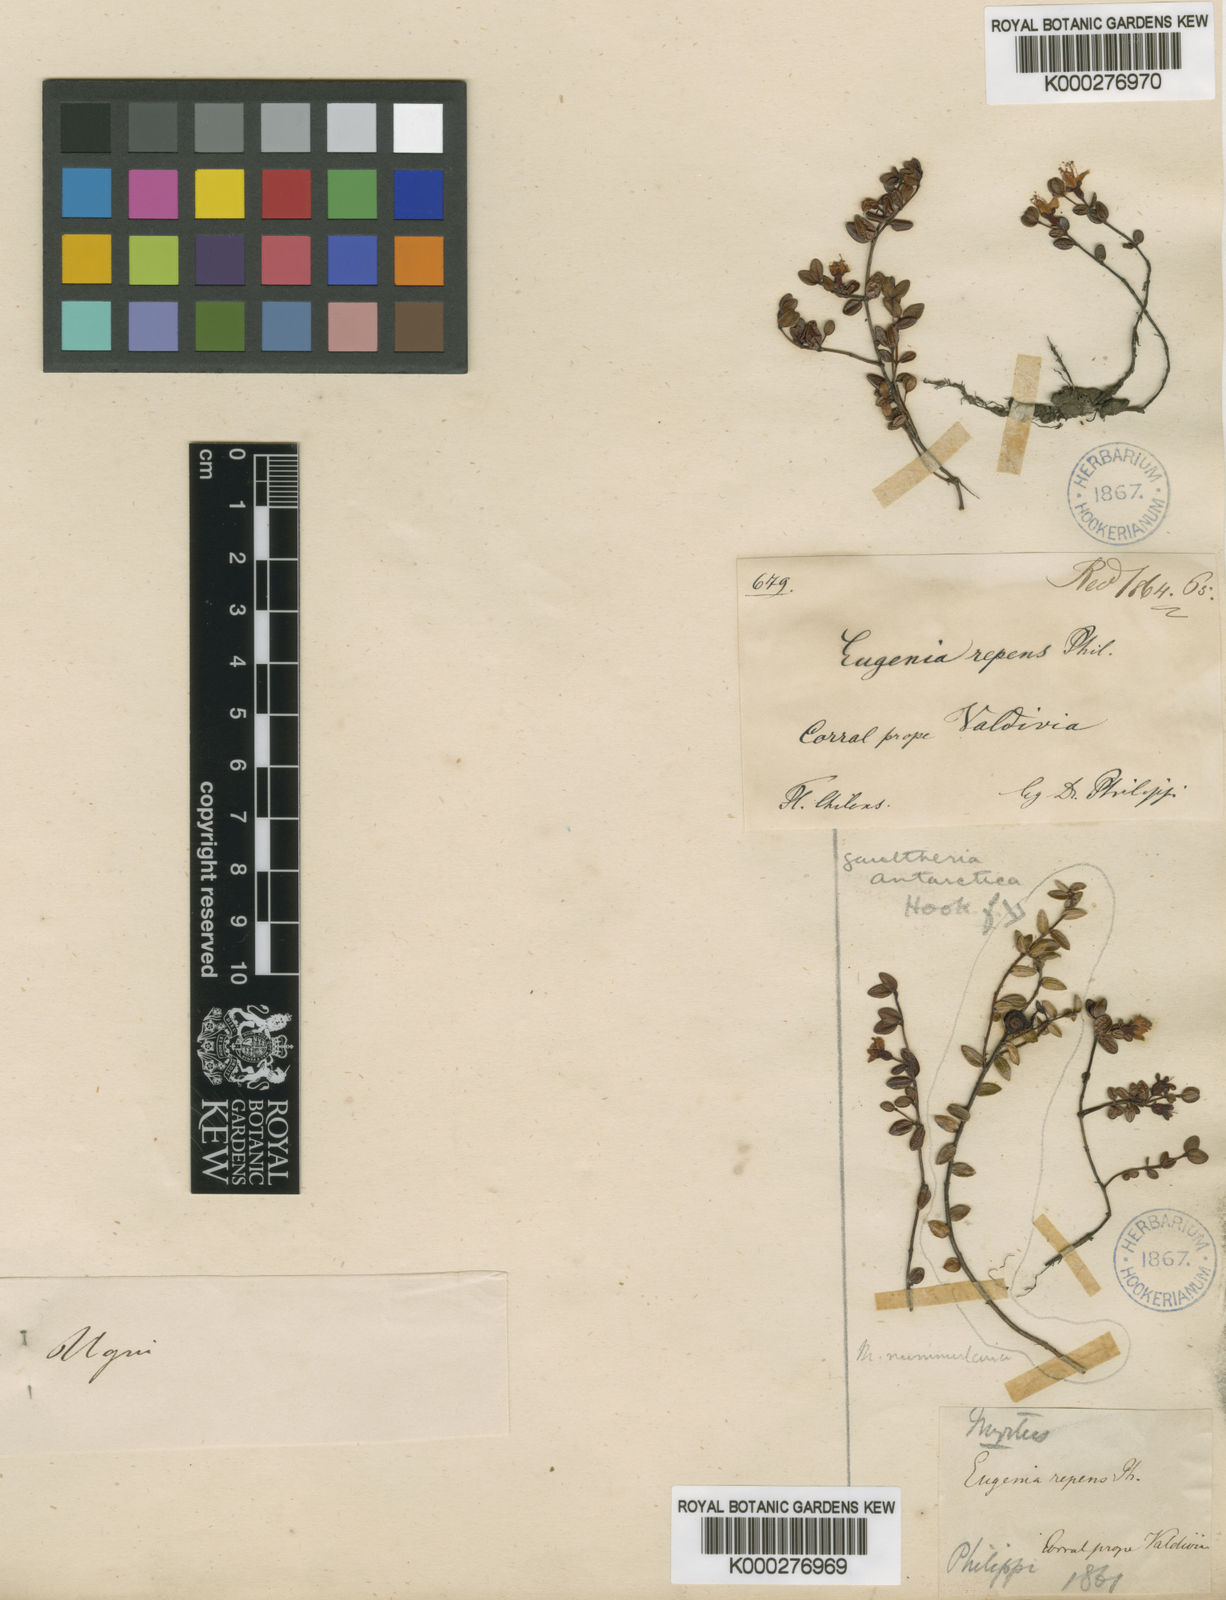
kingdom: Plantae
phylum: Tracheophyta
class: Magnoliopsida
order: Myrtales
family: Myrtaceae
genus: Myrteola
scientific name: Myrteola nummularia
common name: Cranberry-myrtle
